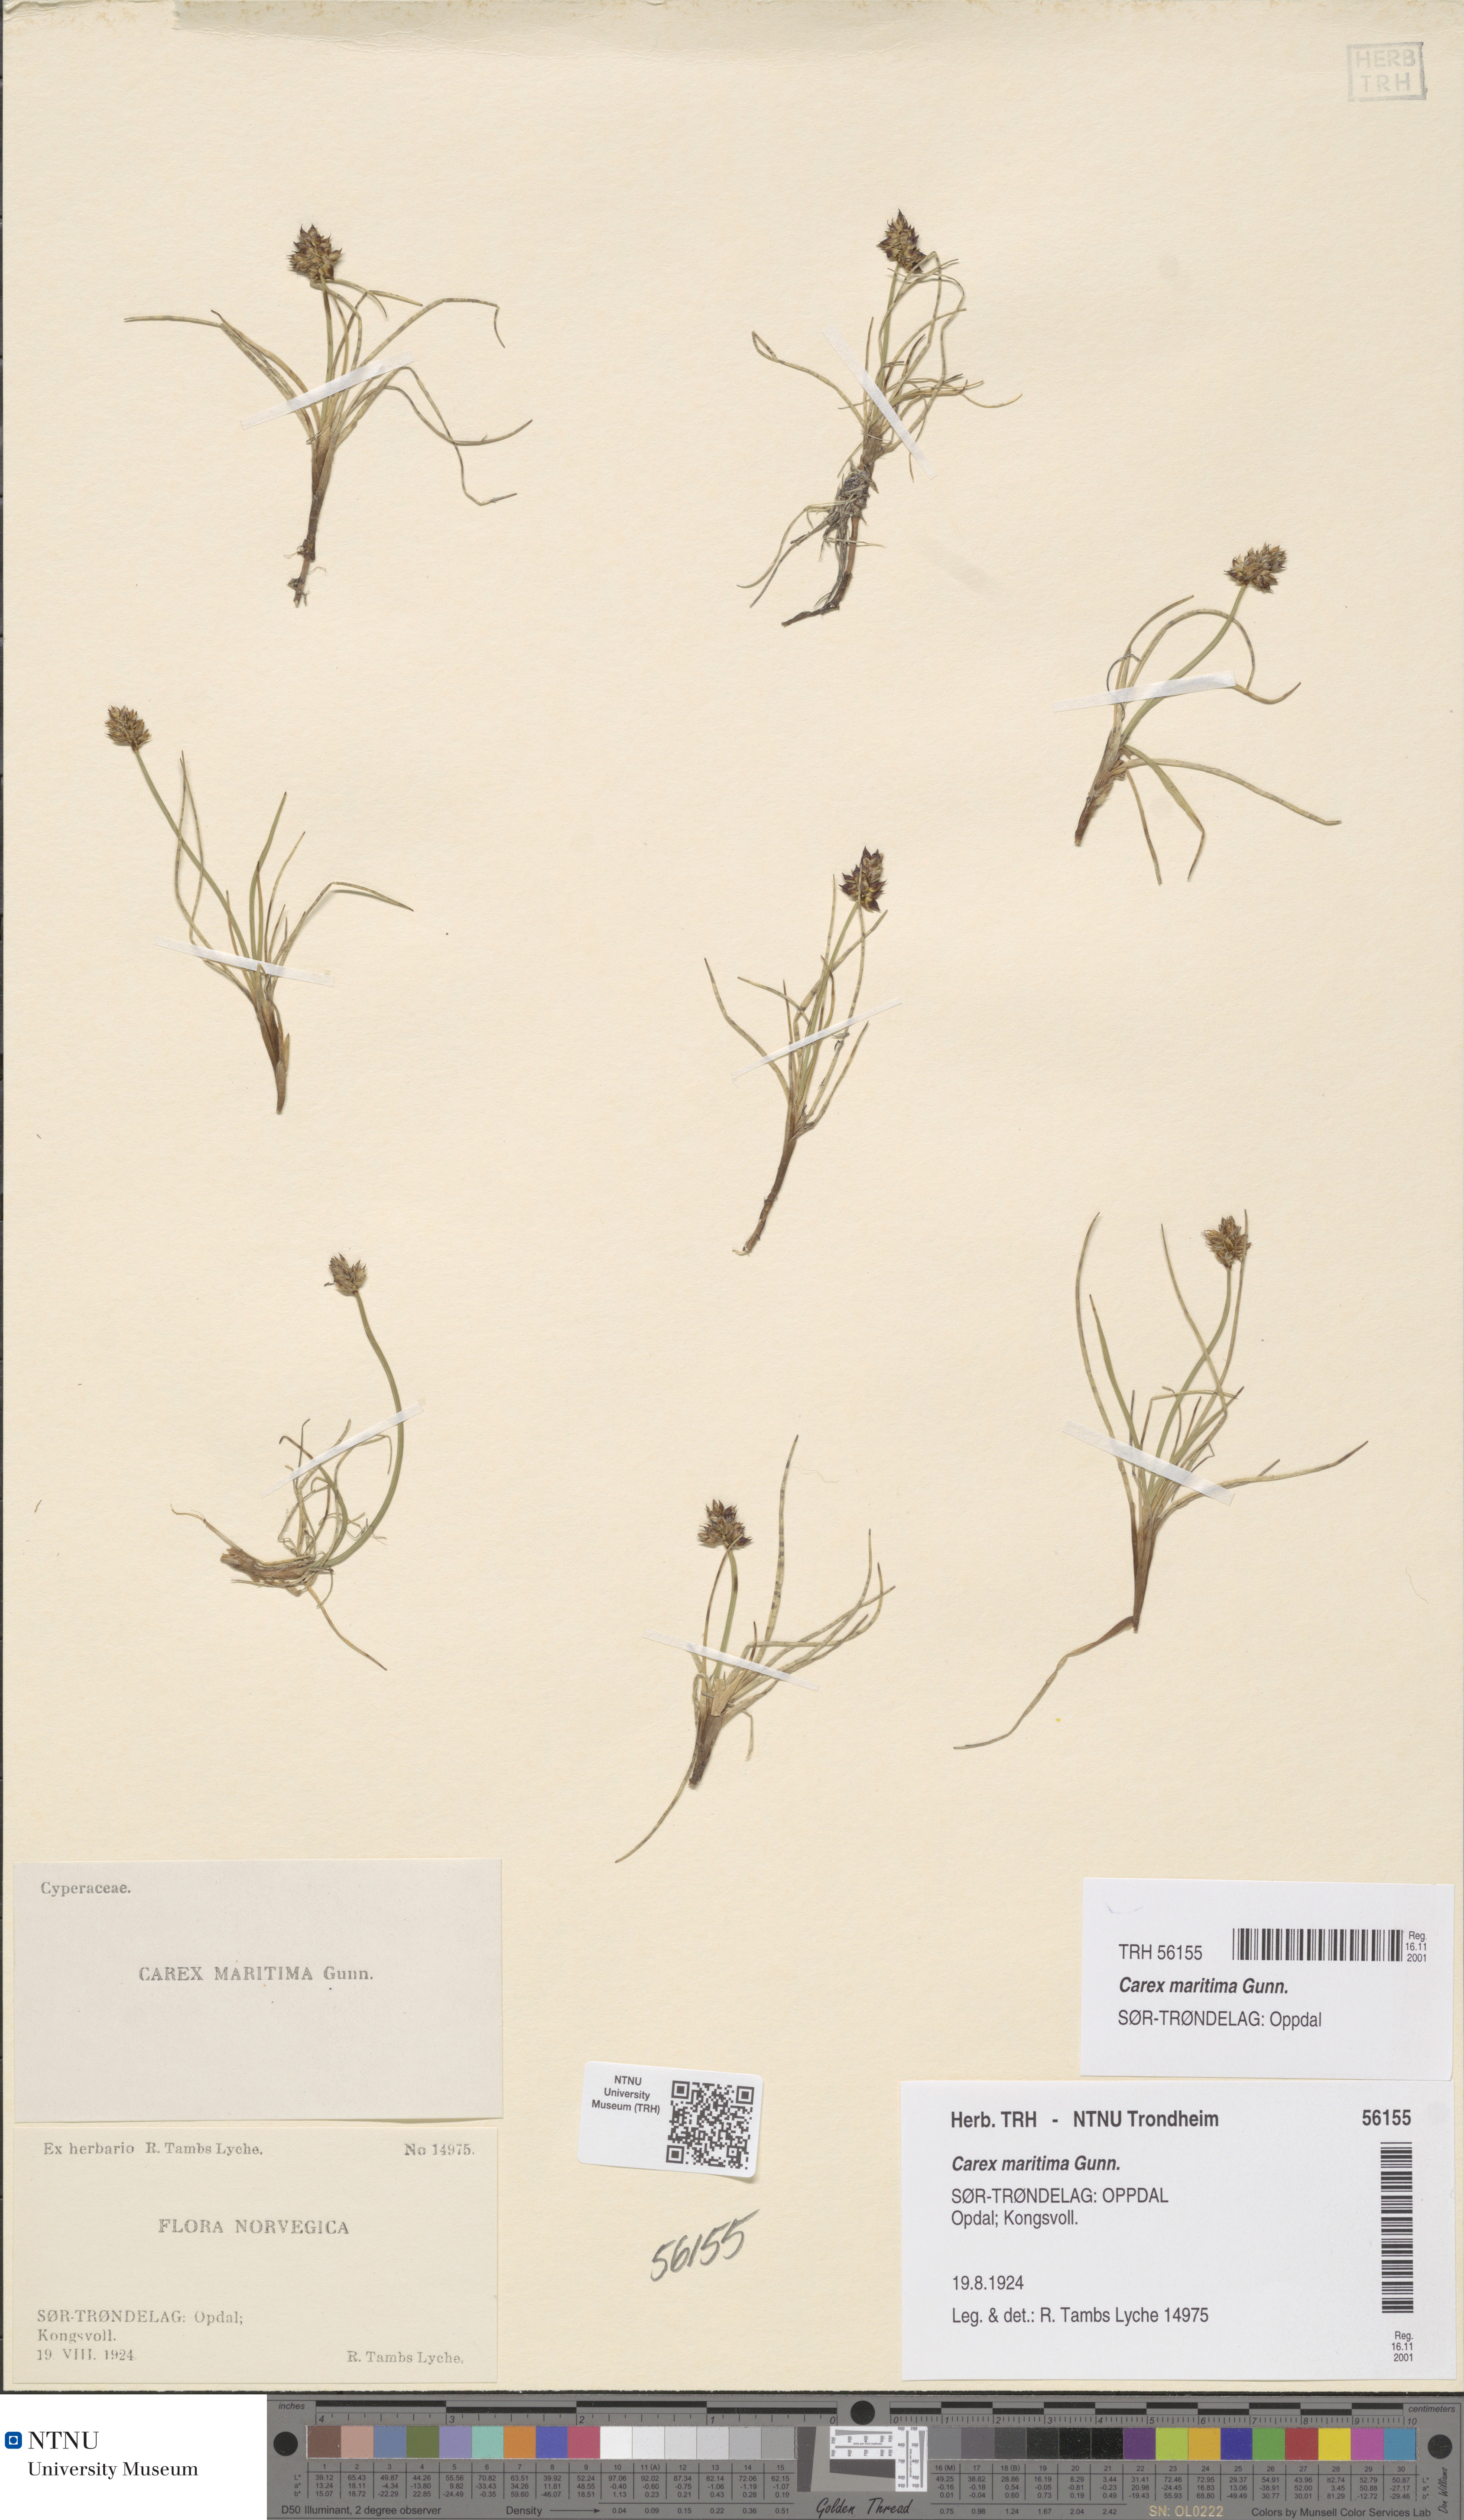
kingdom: Plantae
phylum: Tracheophyta
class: Liliopsida
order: Poales
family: Cyperaceae
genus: Carex
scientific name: Carex maritima
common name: Curved sedge
